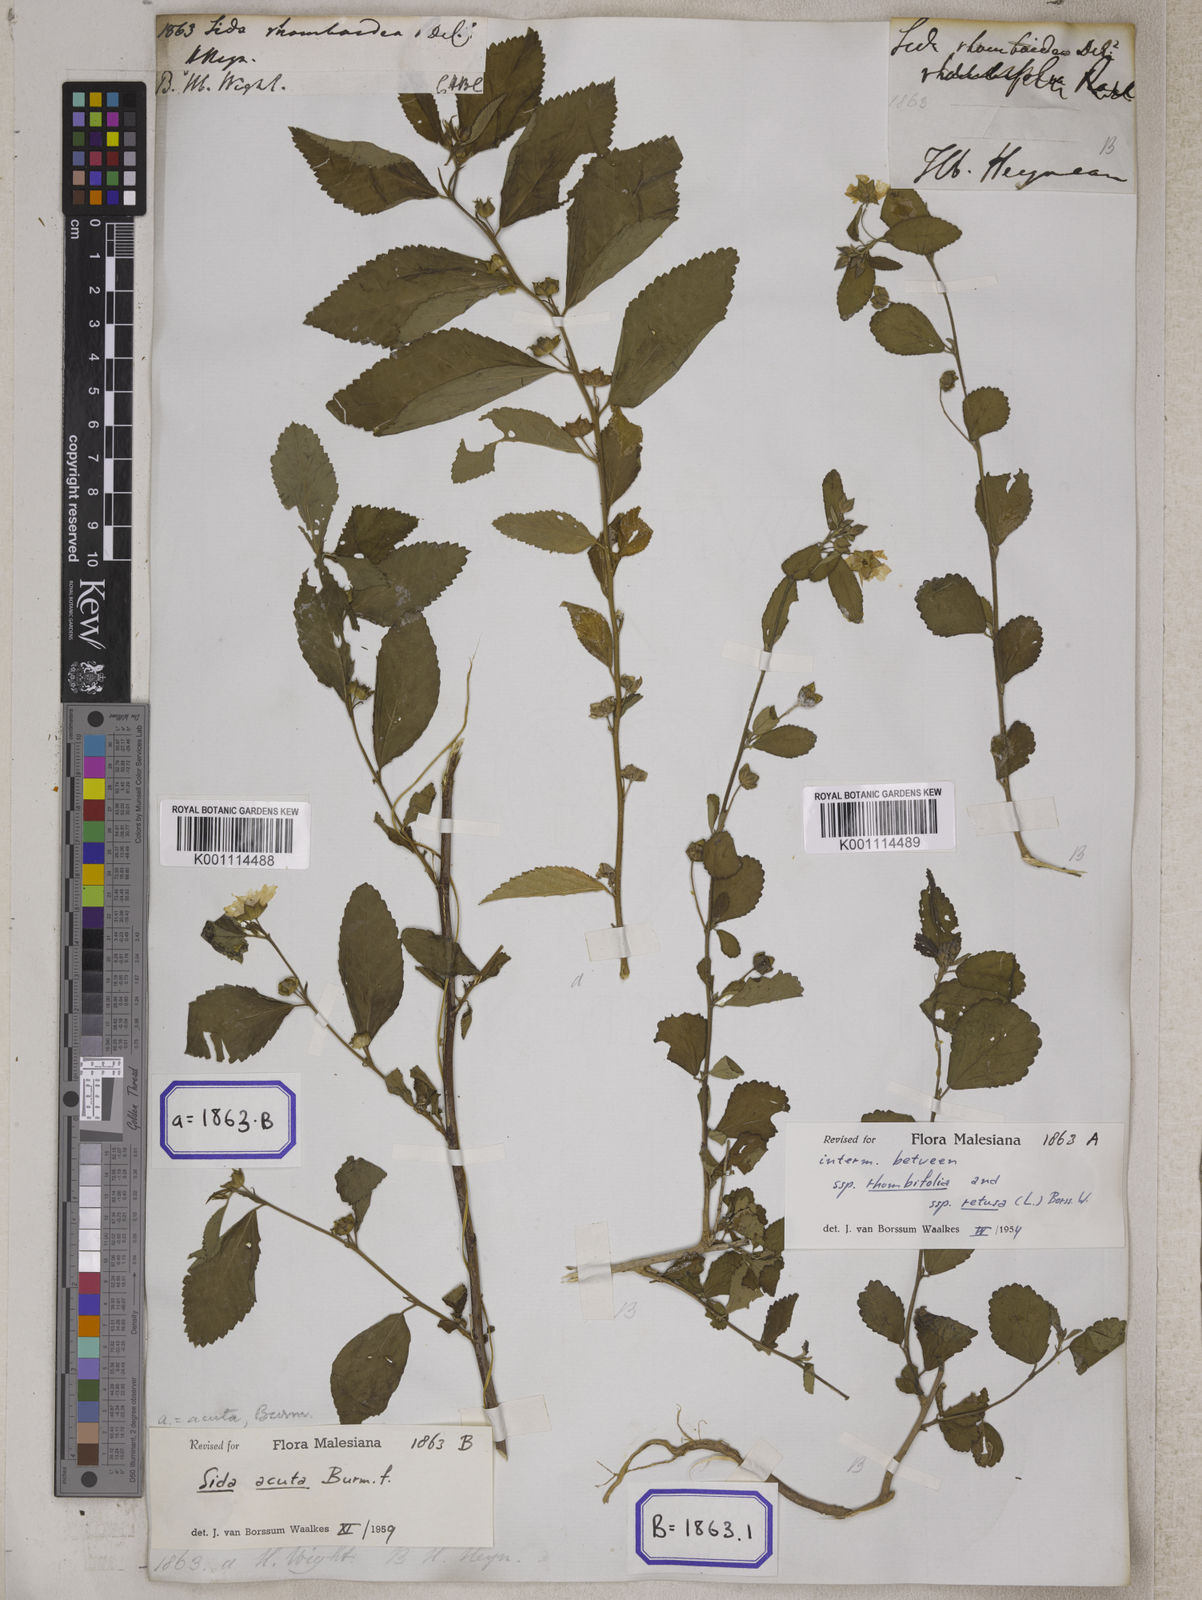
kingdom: Plantae
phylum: Tracheophyta
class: Magnoliopsida
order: Malvales
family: Malvaceae
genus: Sida
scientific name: Sida rhombifolia
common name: Queensland-hemp
